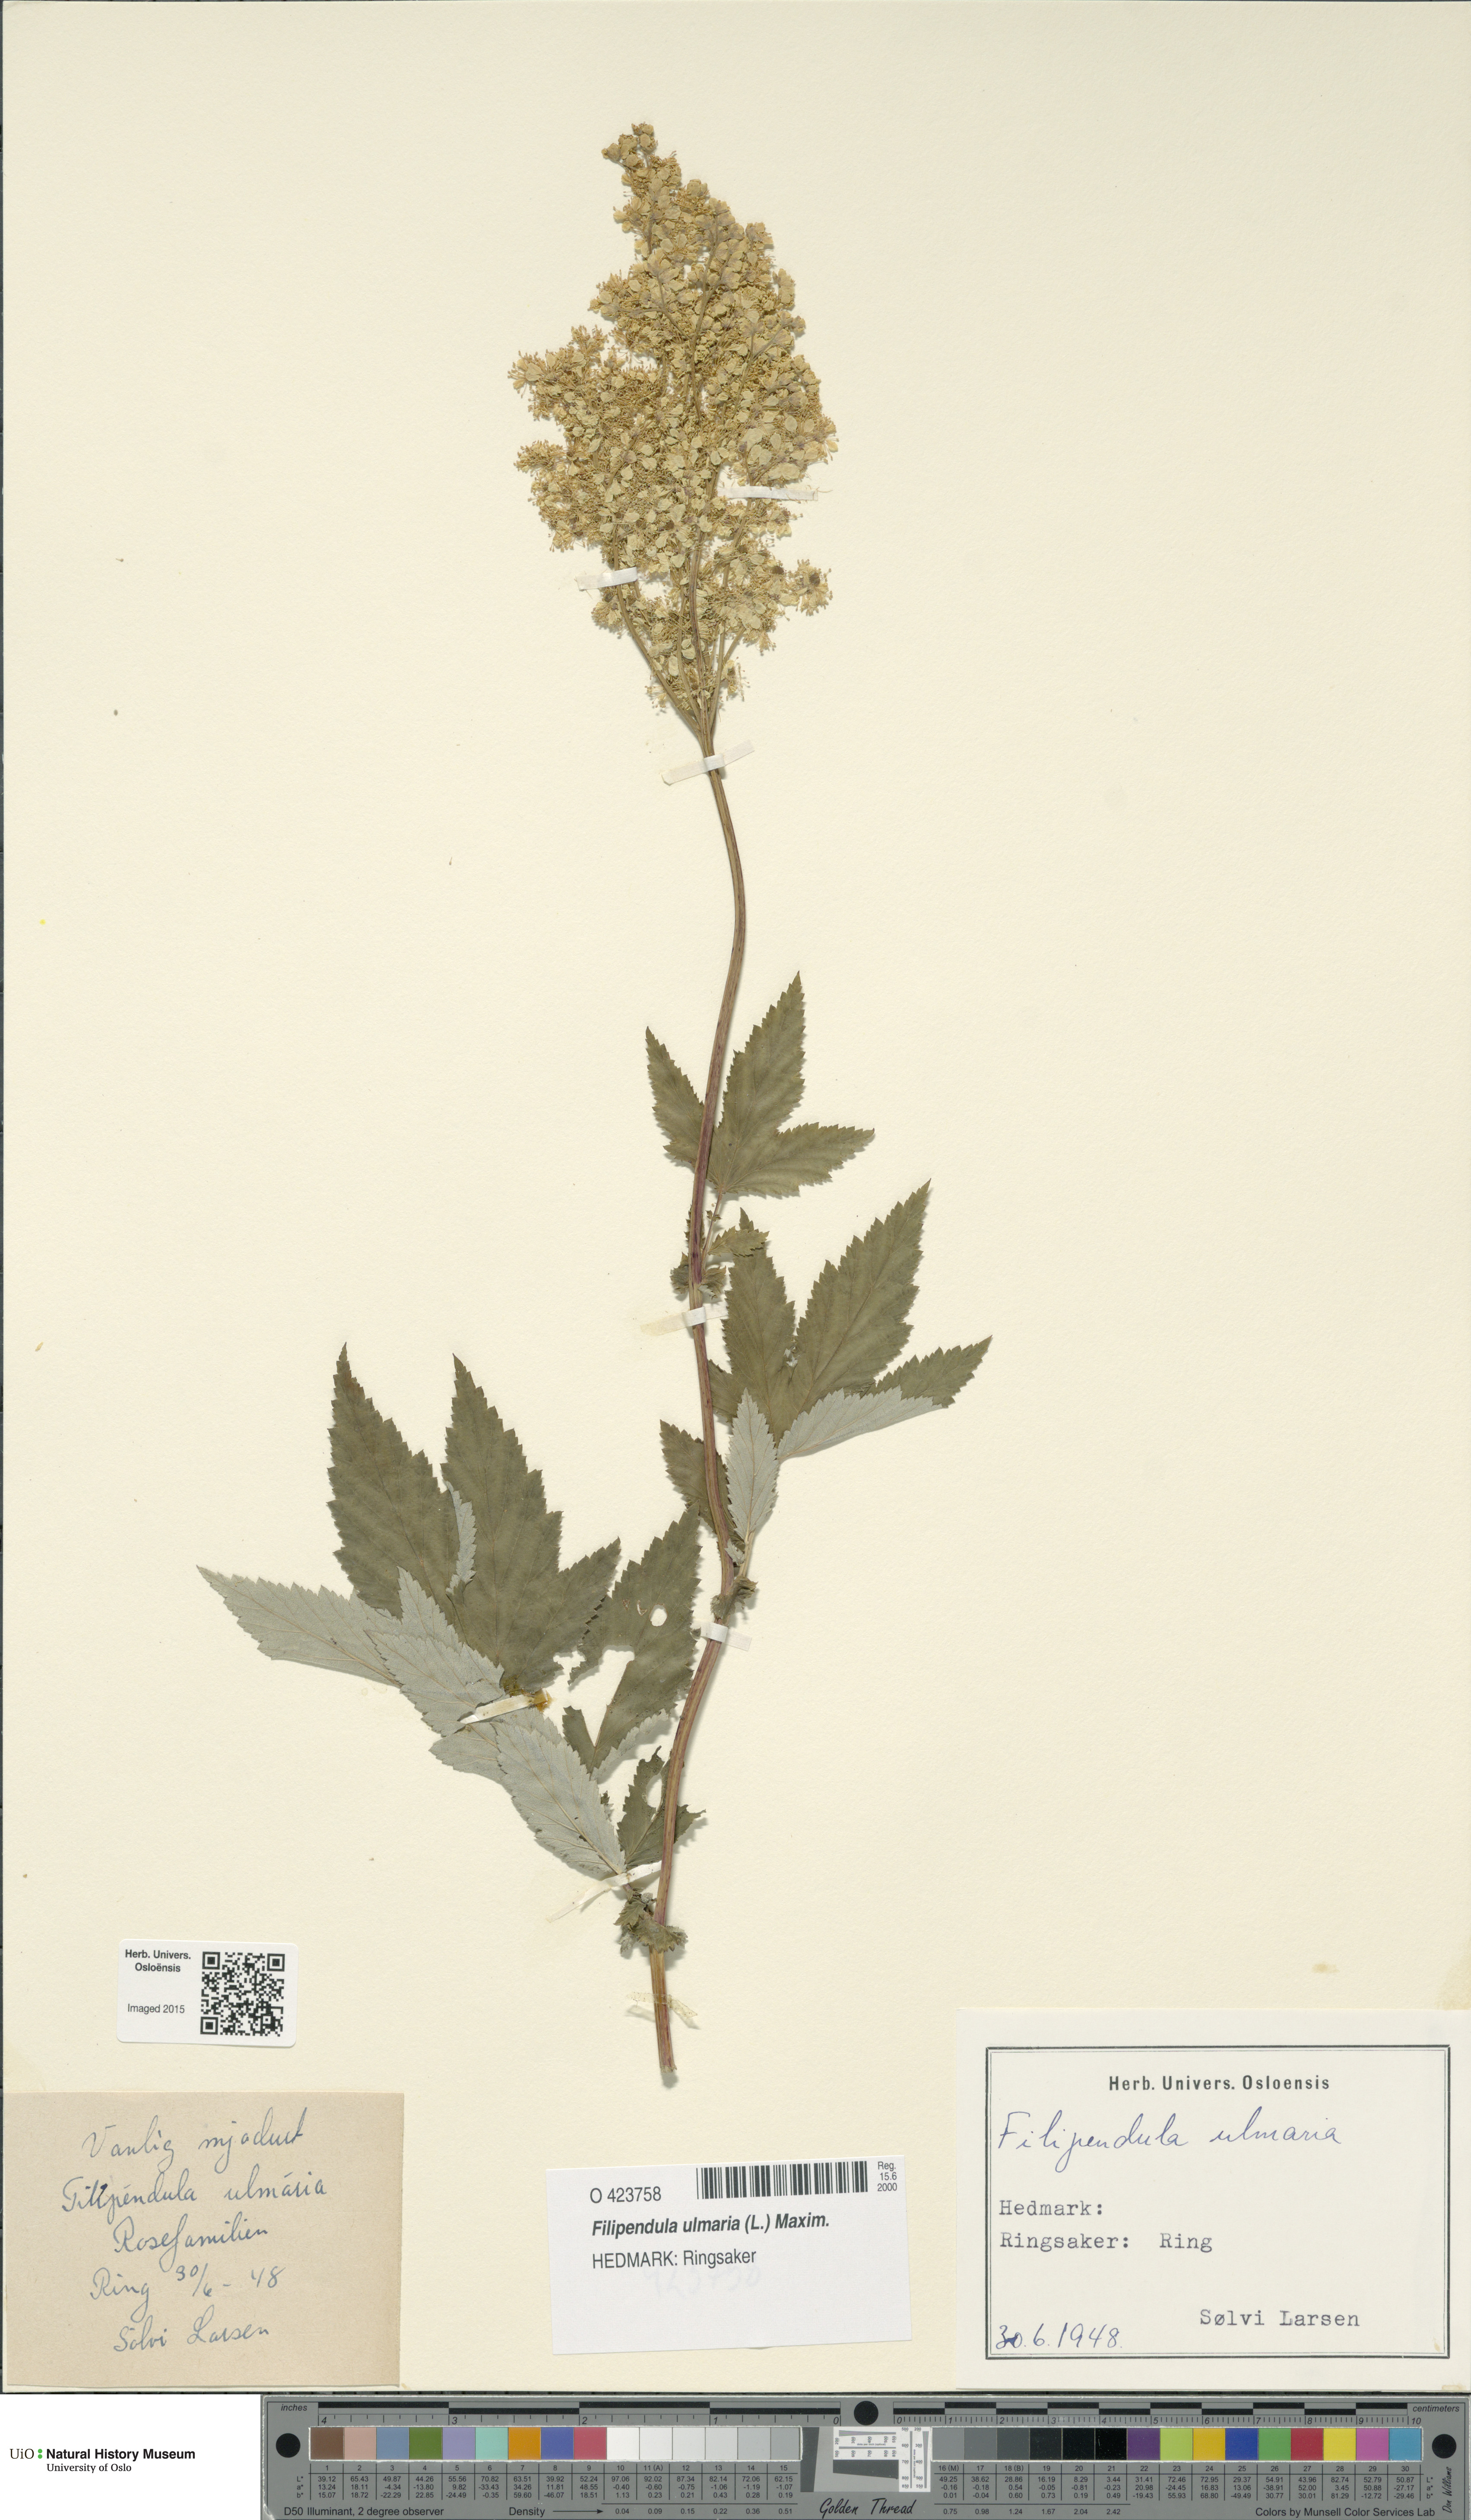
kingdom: Plantae
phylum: Tracheophyta
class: Magnoliopsida
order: Rosales
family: Rosaceae
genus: Filipendula
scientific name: Filipendula ulmaria
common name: Meadowsweet
